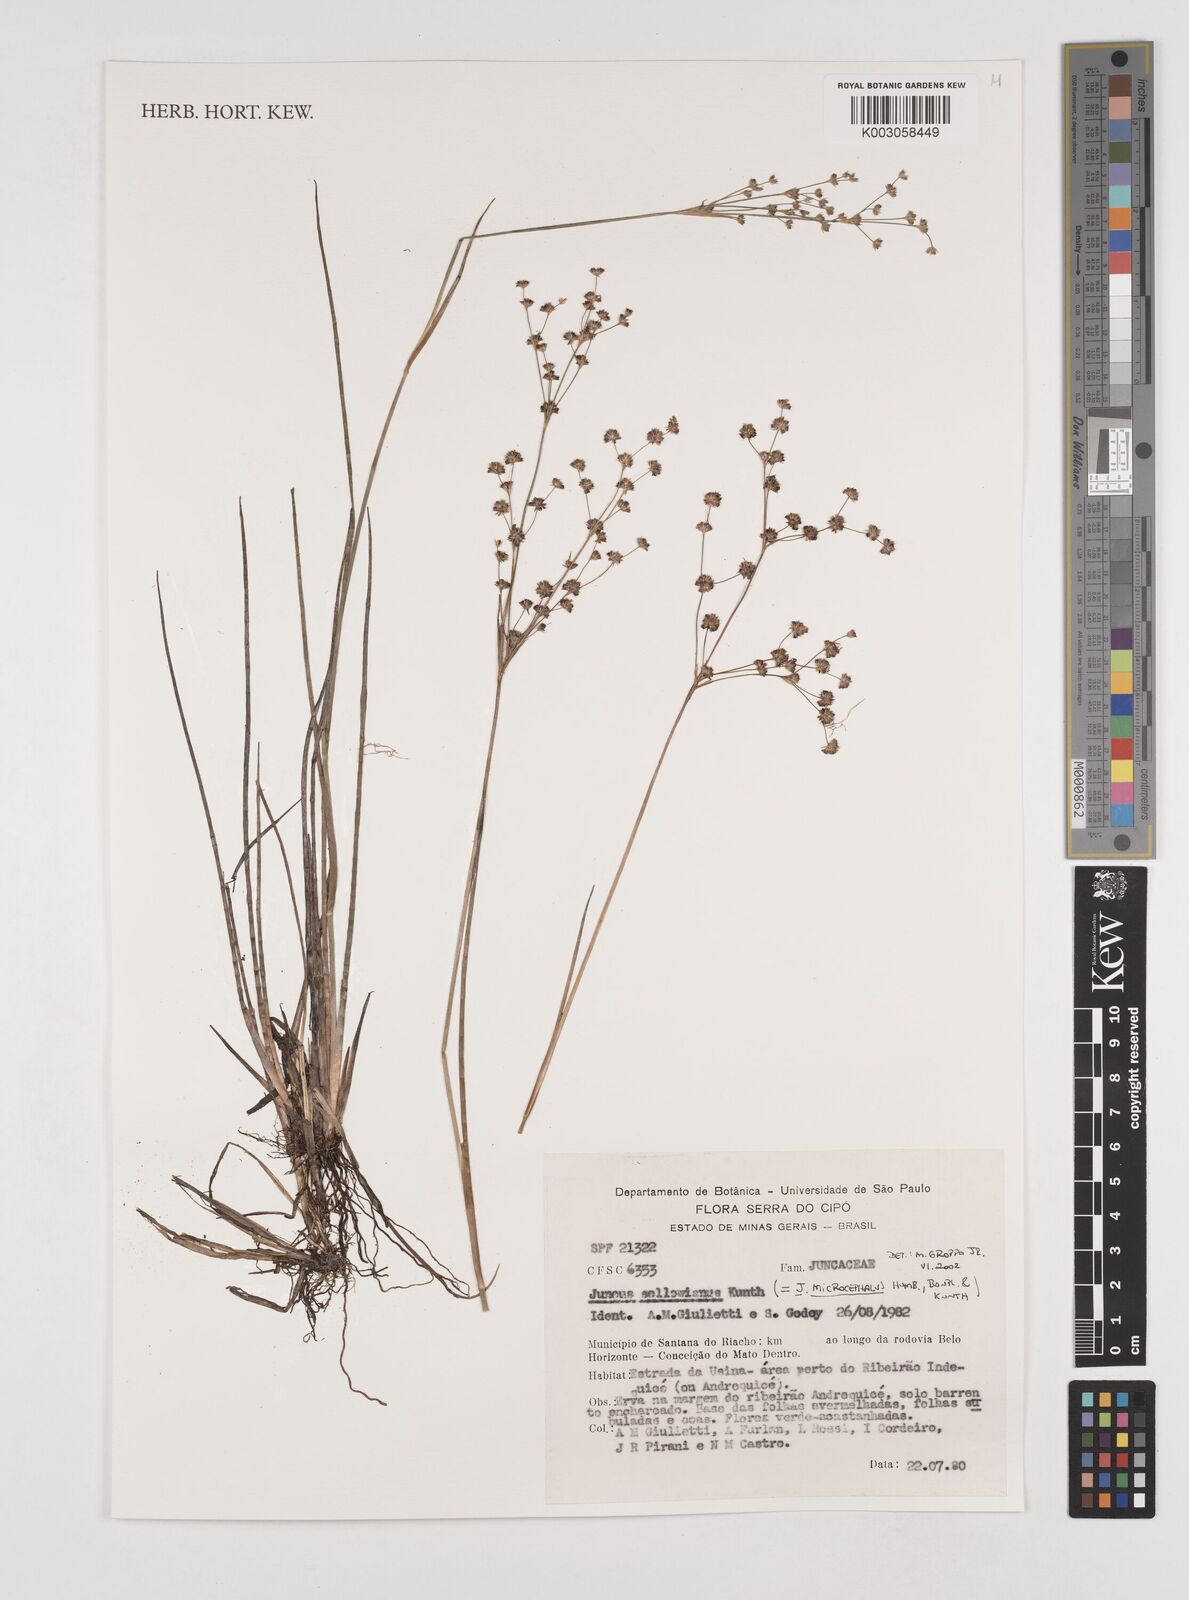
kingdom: Plantae
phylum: Tracheophyta
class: Liliopsida
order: Poales
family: Juncaceae
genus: Juncus
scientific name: Juncus microcephalus
